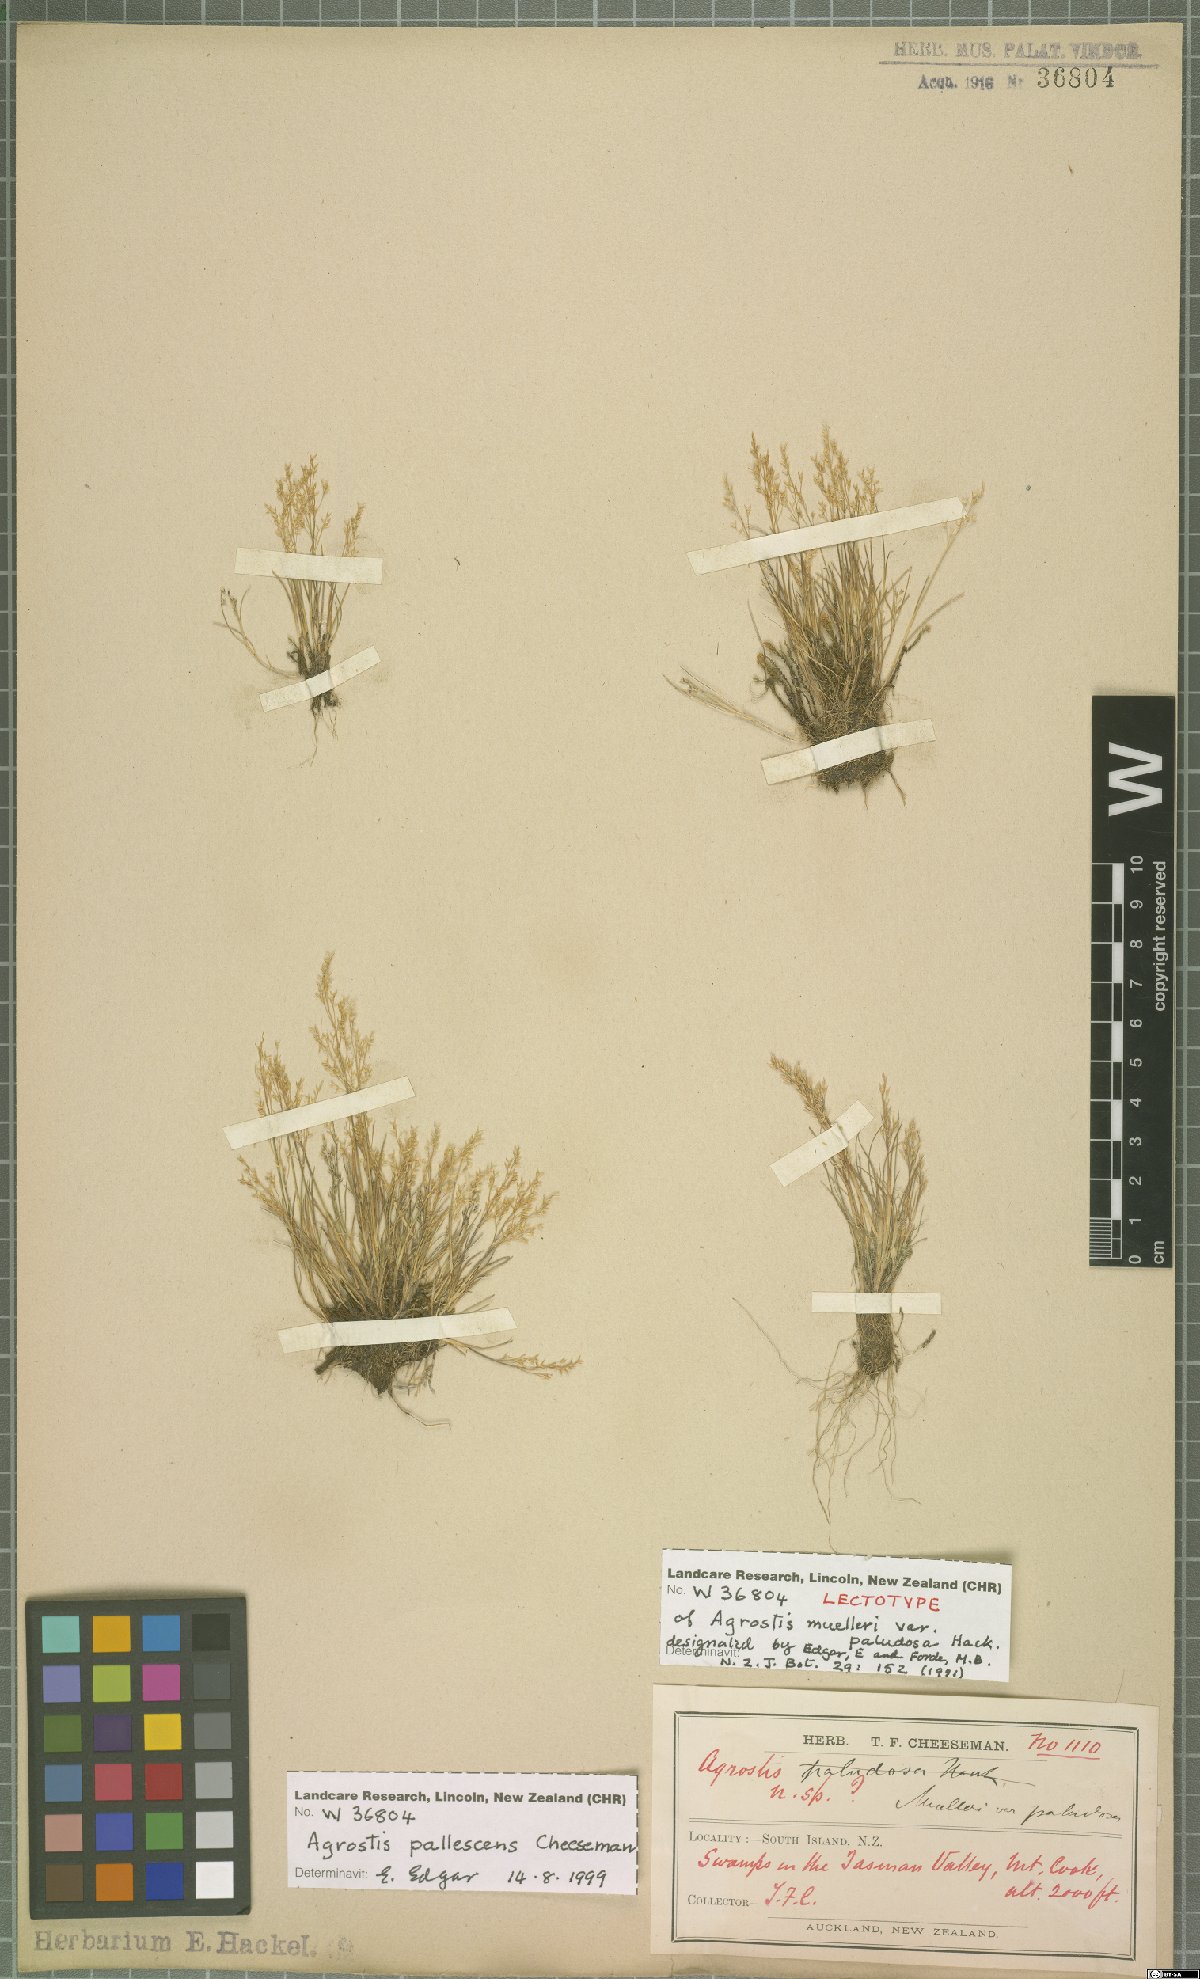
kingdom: Plantae
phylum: Tracheophyta
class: Liliopsida
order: Poales
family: Poaceae
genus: Agrostis
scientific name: Agrostis pallescens
